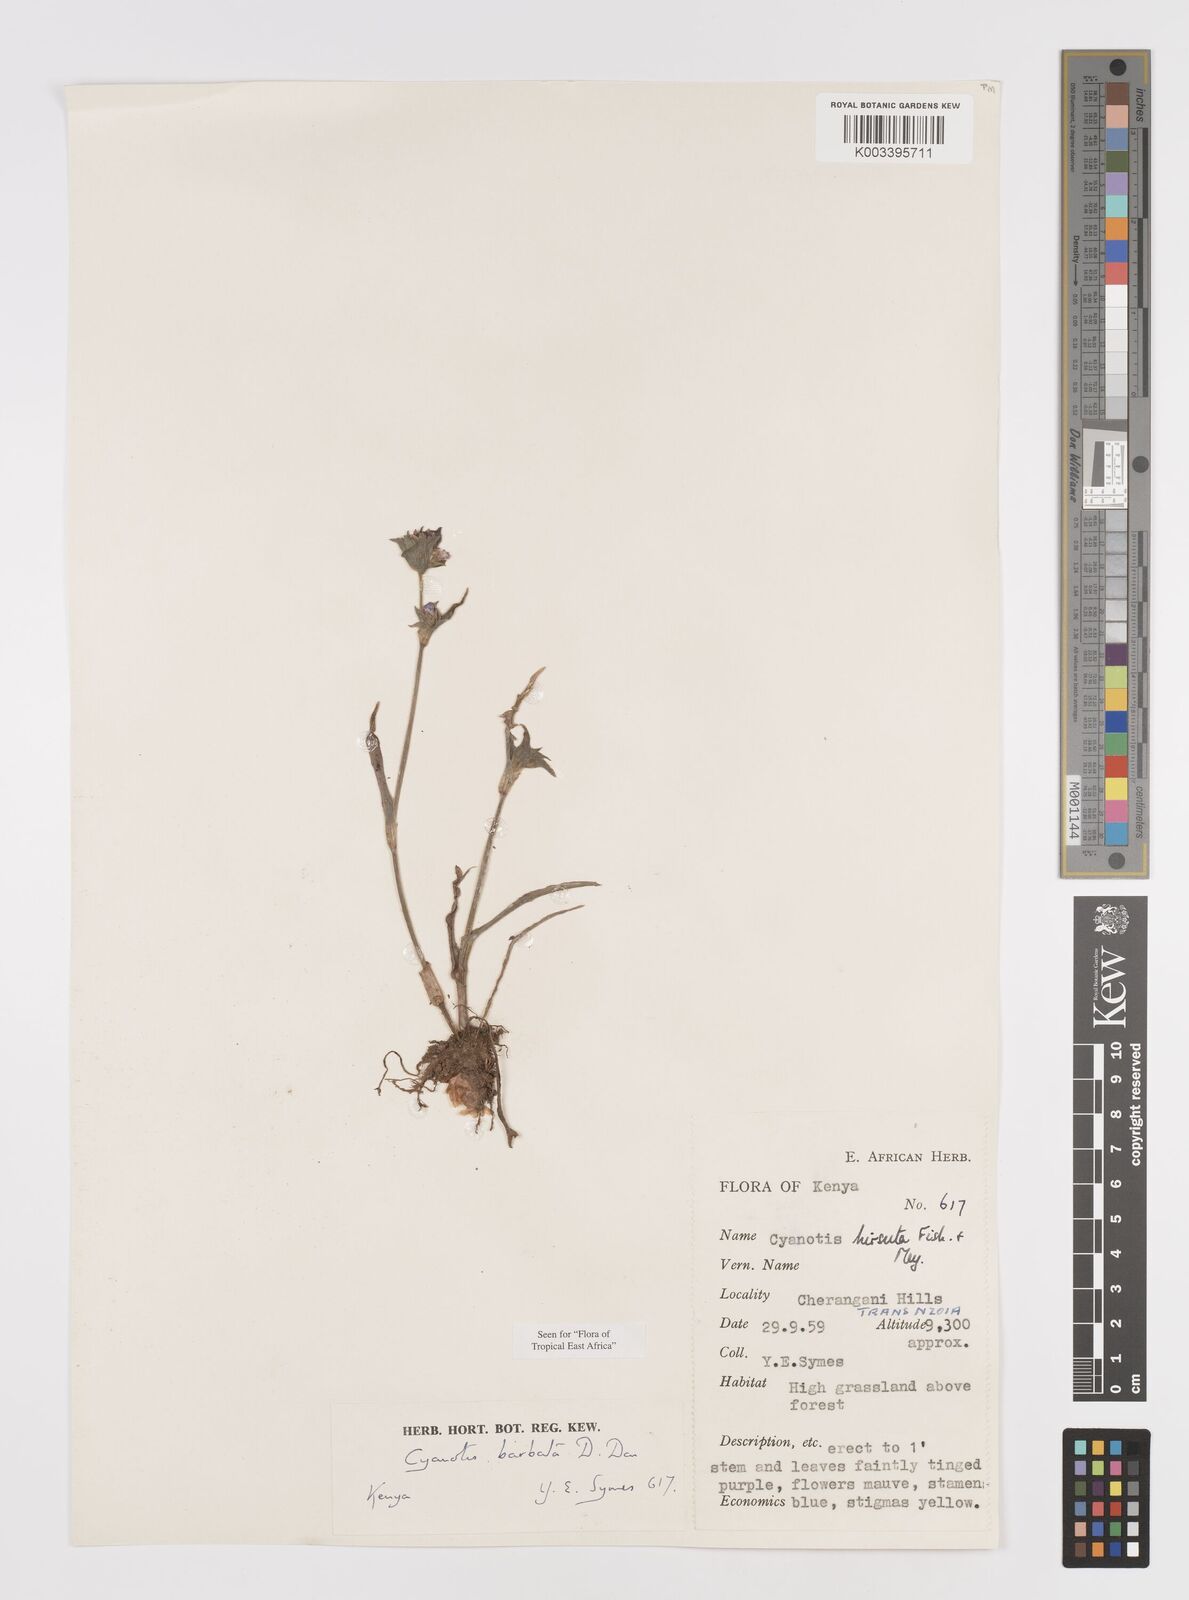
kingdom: Plantae
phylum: Tracheophyta
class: Liliopsida
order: Commelinales
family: Commelinaceae
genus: Cyanotis
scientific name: Cyanotis vaga
